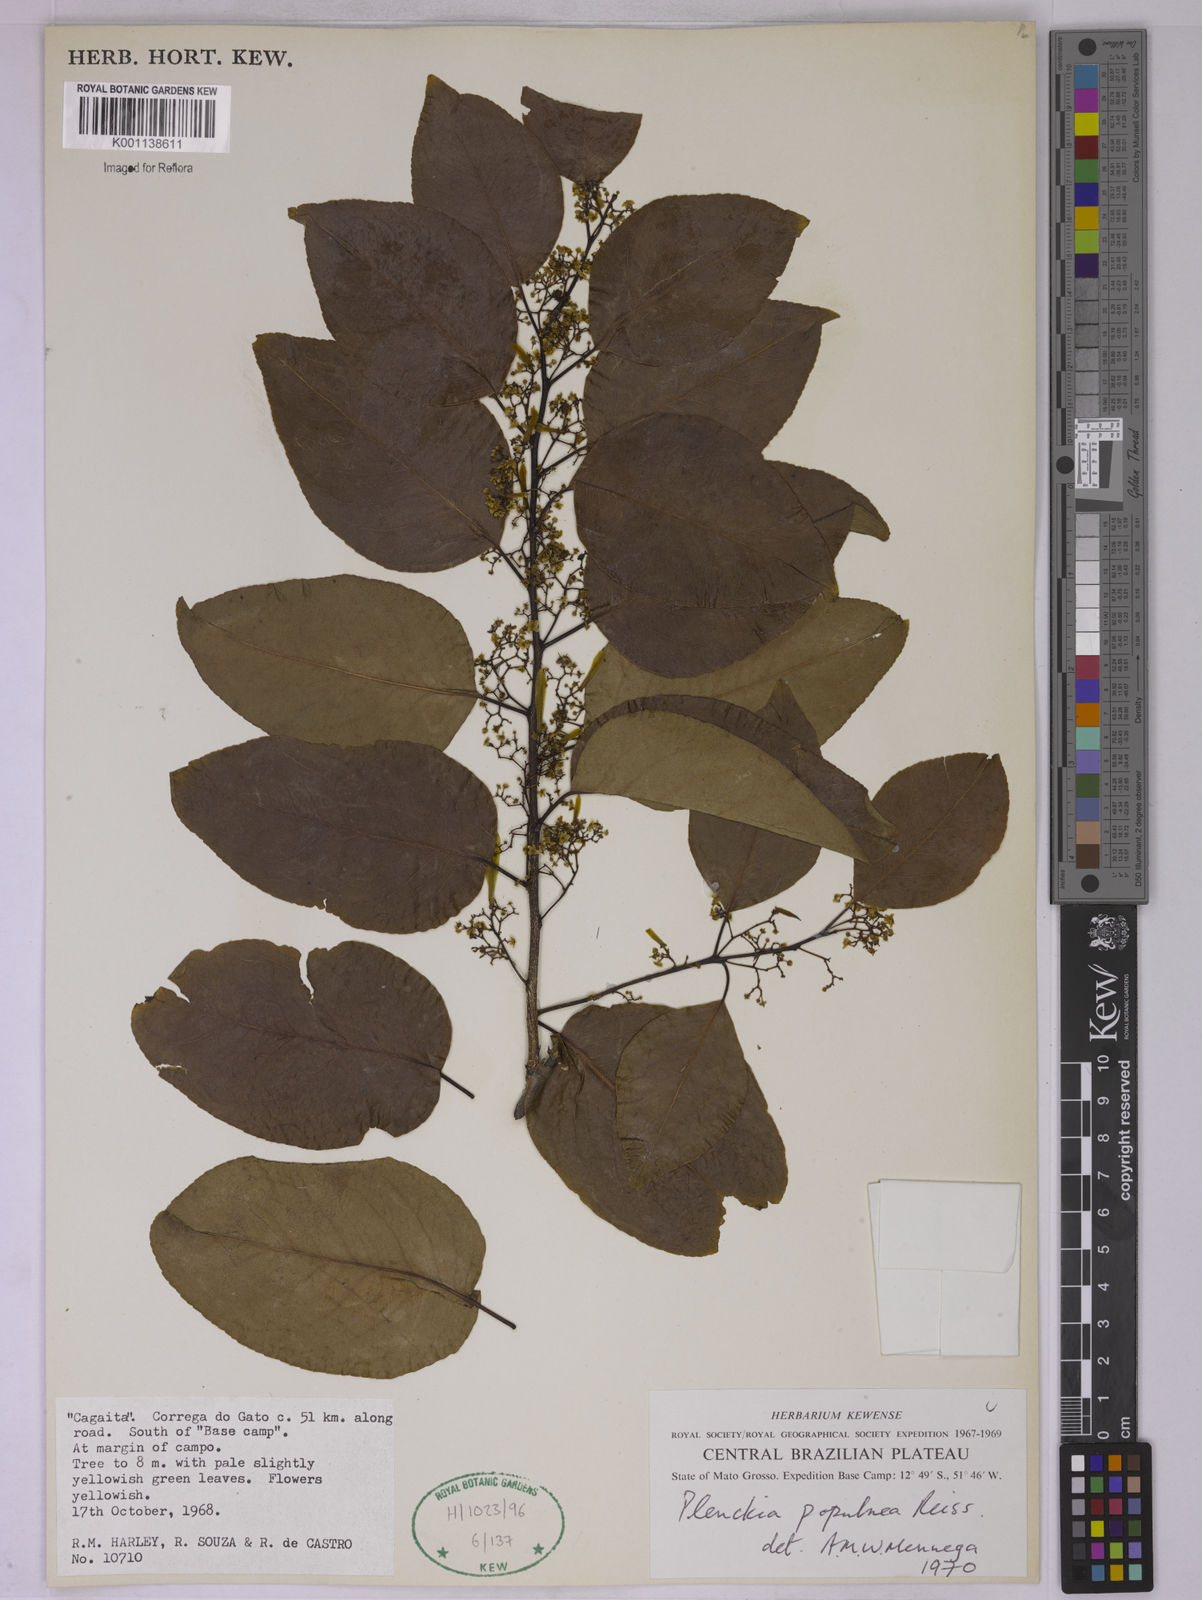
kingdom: Plantae
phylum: Tracheophyta
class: Magnoliopsida
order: Celastrales
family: Celastraceae
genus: Plenckia
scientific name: Plenckia populnea
